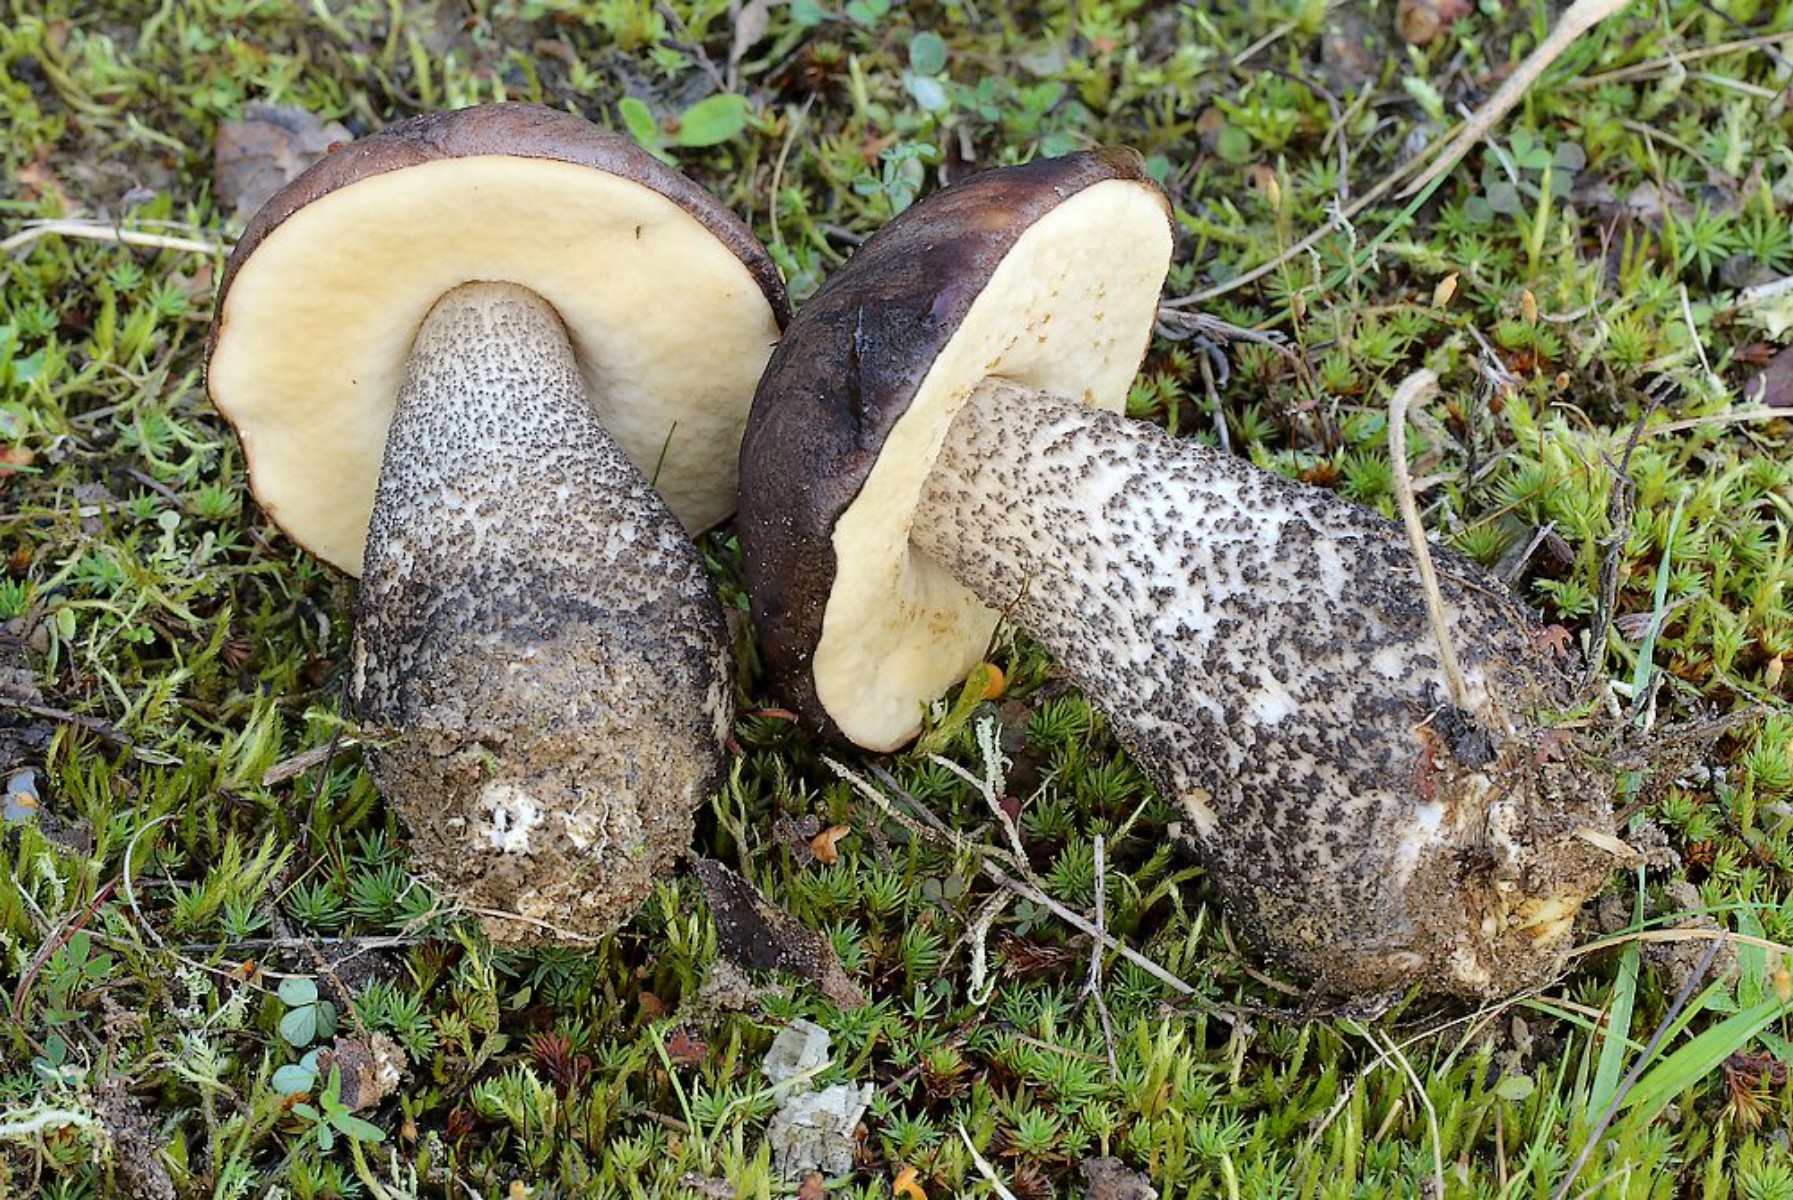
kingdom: Fungi
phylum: Basidiomycota
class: Agaricomycetes
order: Boletales
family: Boletaceae
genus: Leccinum
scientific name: Leccinum scabrum
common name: brun skælrørhat
